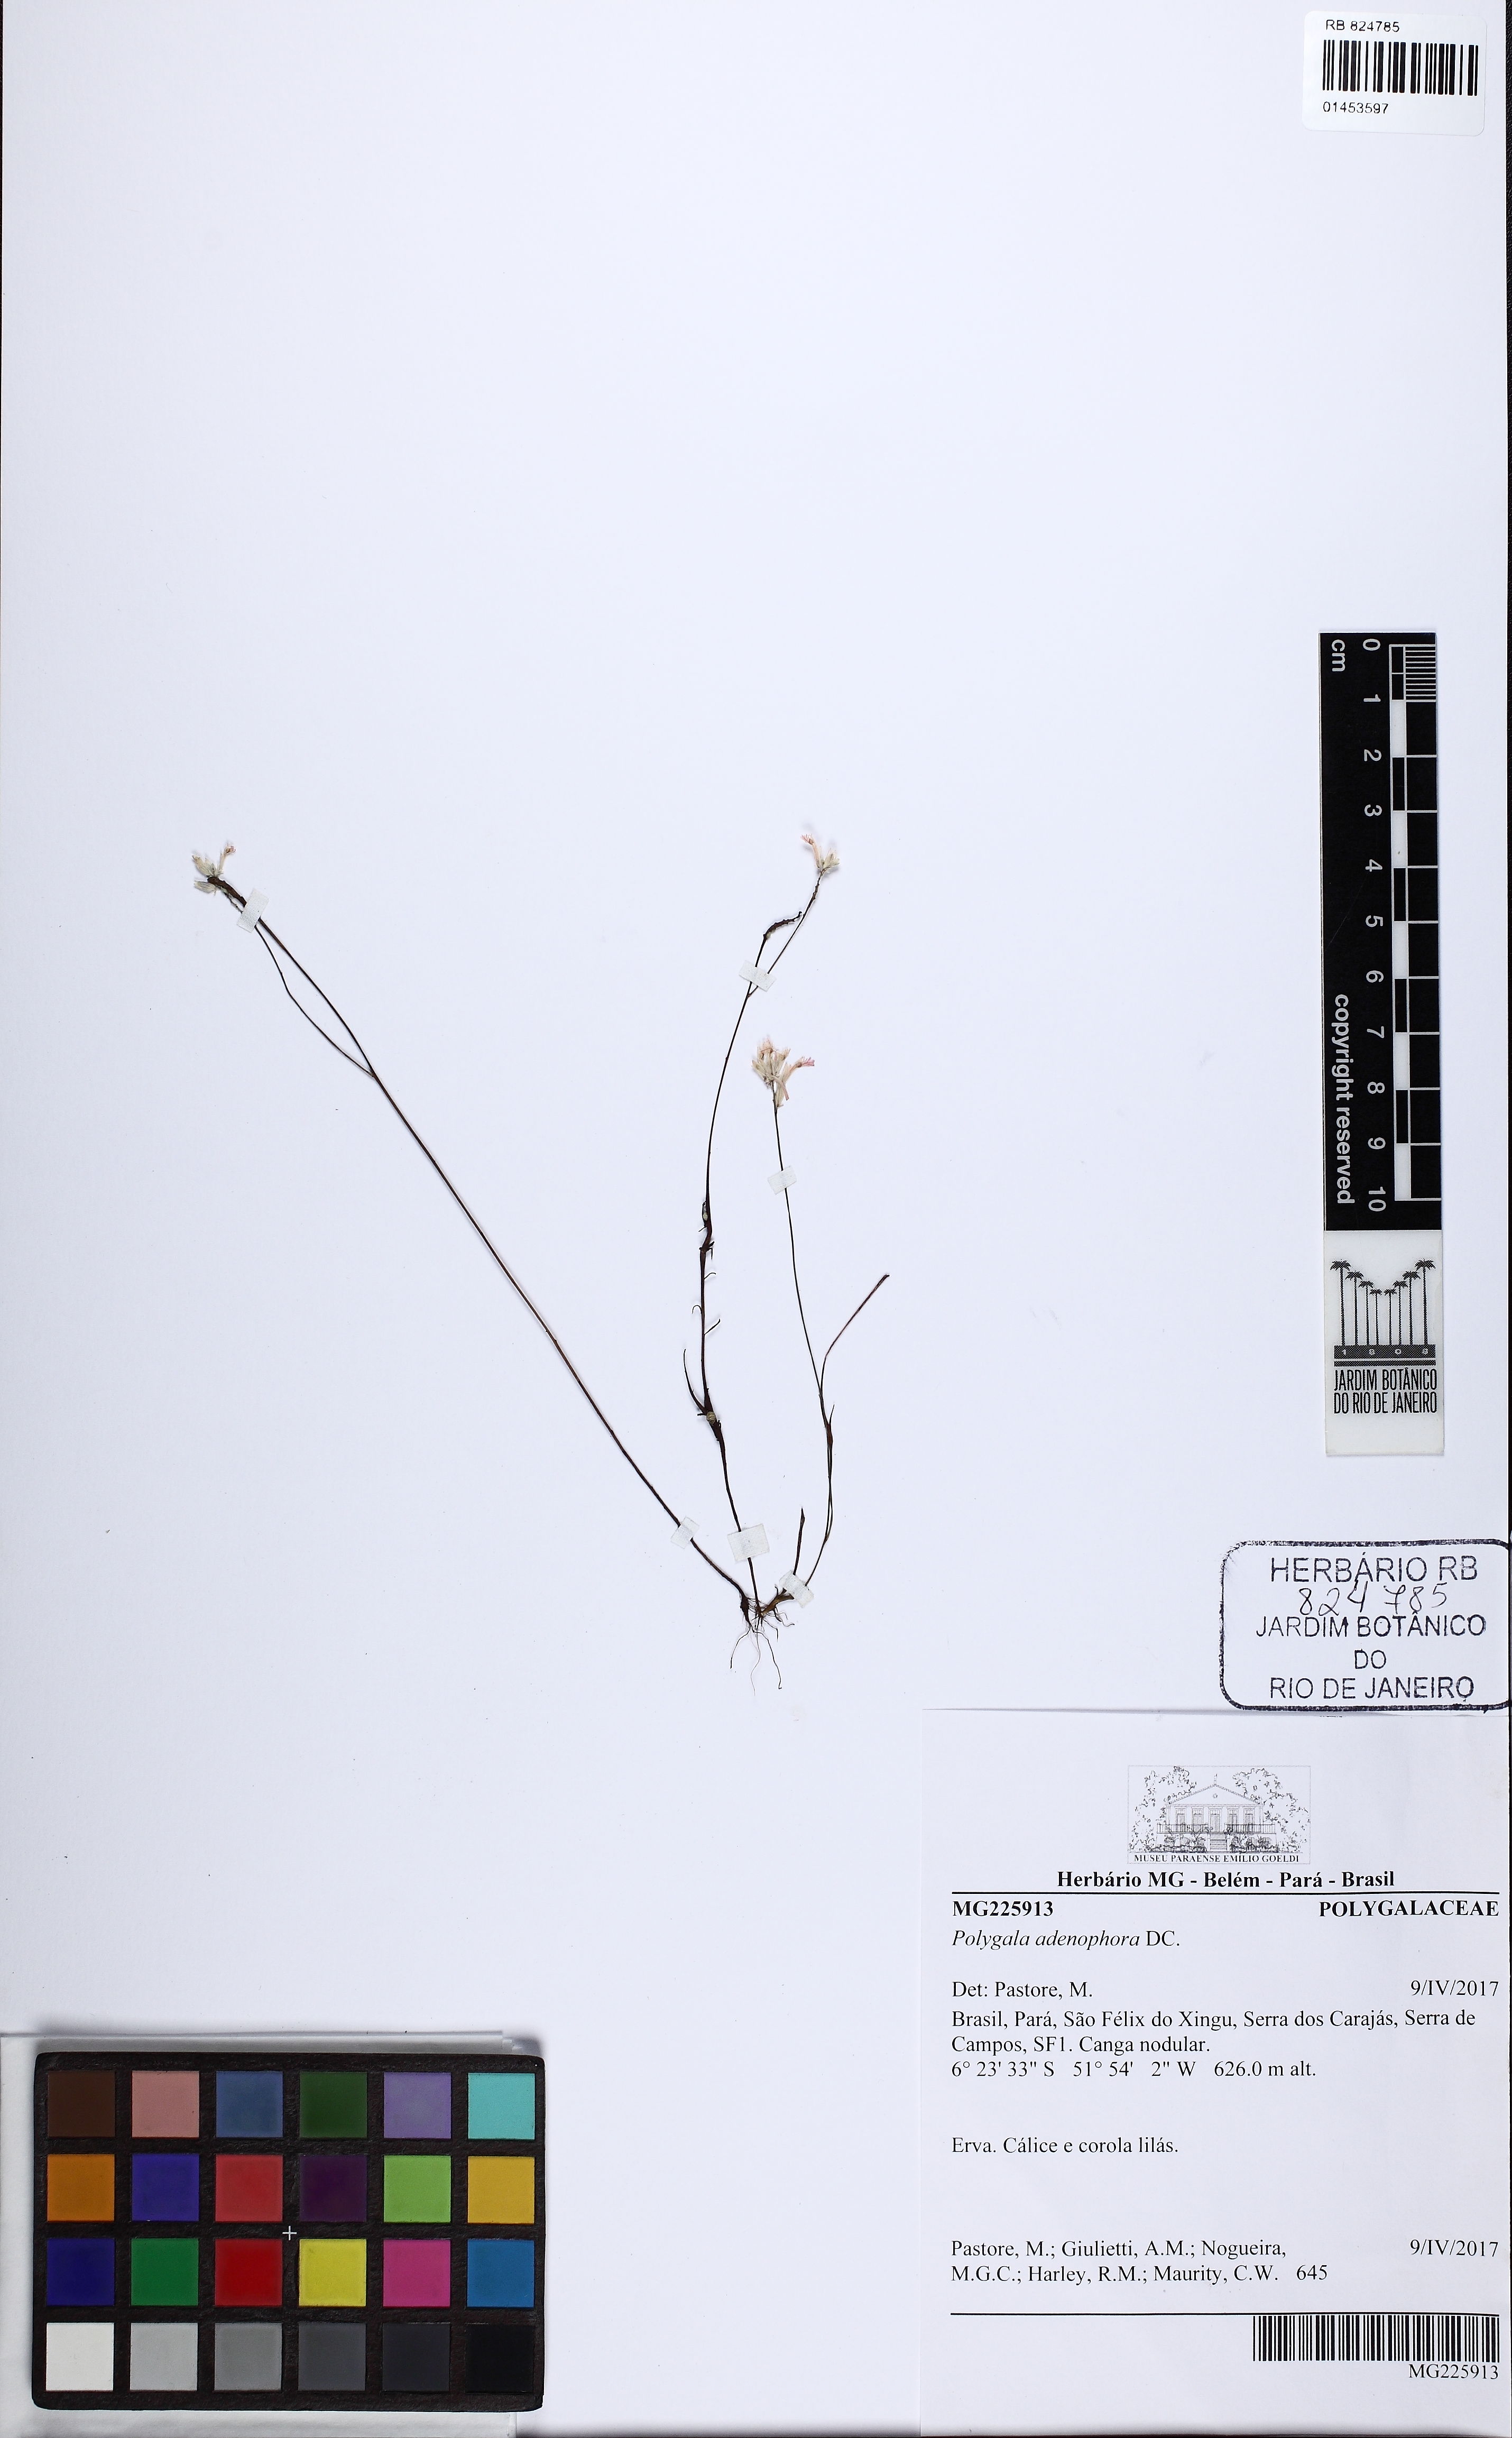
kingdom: Plantae
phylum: Tracheophyta
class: Magnoliopsida
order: Fabales
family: Polygalaceae
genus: Polygala
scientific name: Polygala adenophora
